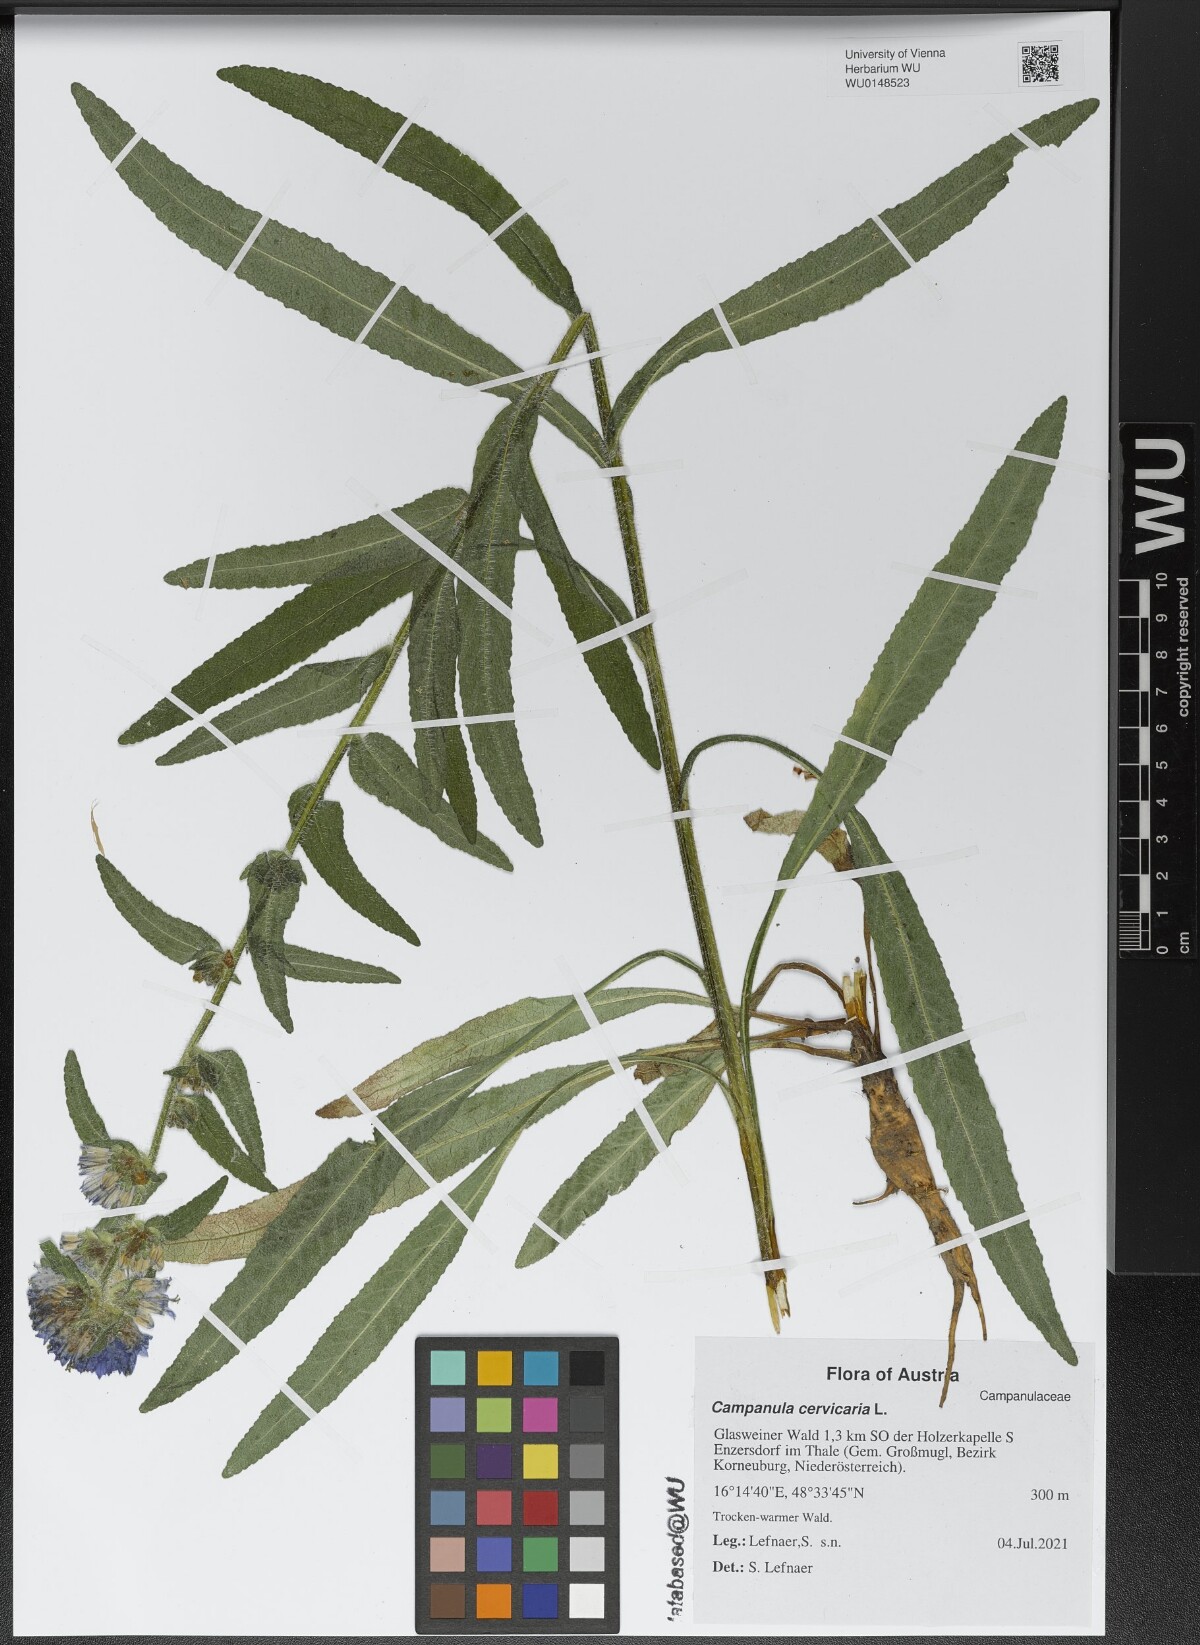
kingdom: Plantae
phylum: Tracheophyta
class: Magnoliopsida
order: Asterales
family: Campanulaceae
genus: Campanula
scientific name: Campanula cervicaria
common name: Bristly bellflower
